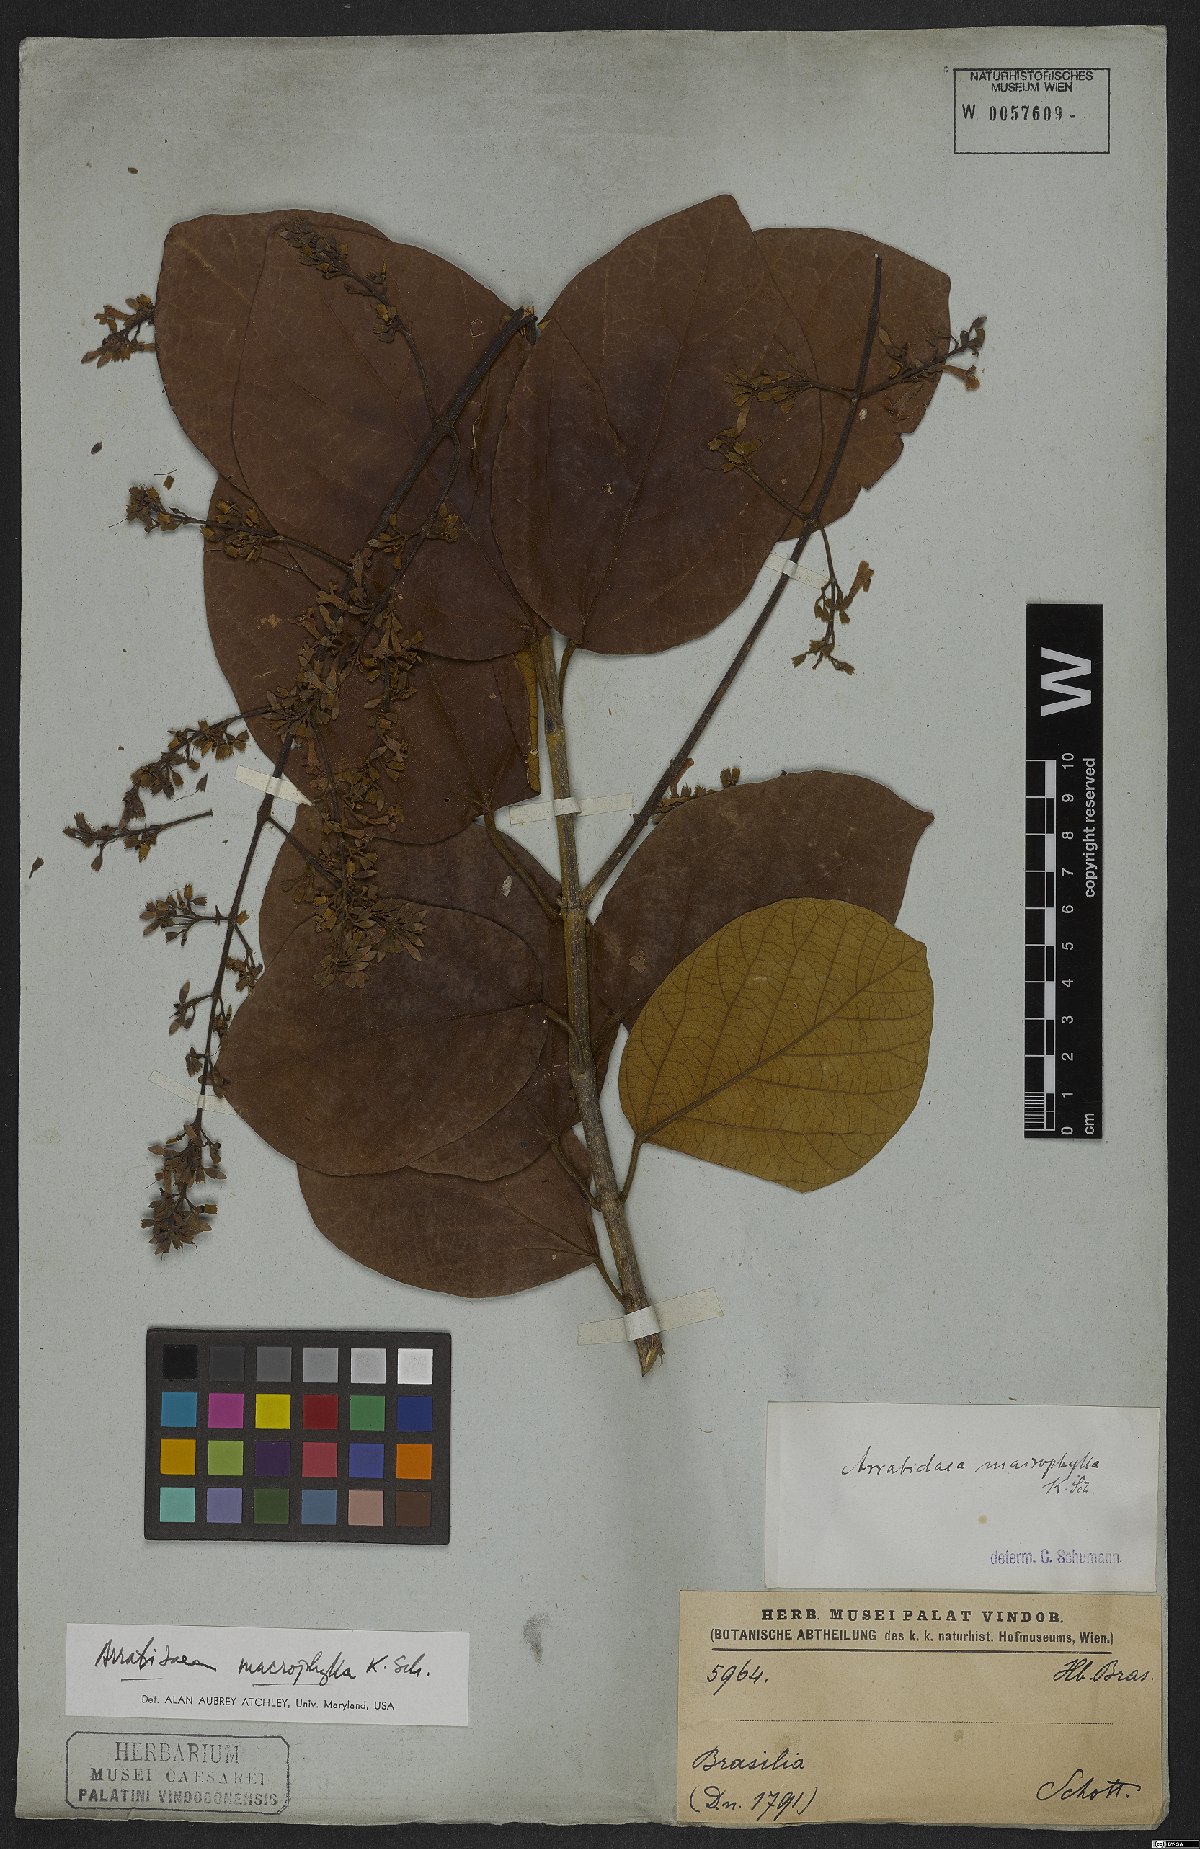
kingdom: Plantae
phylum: Tracheophyta
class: Magnoliopsida
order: Lamiales
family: Bignoniaceae
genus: Xylophragma
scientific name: Xylophragma platyphyllum
